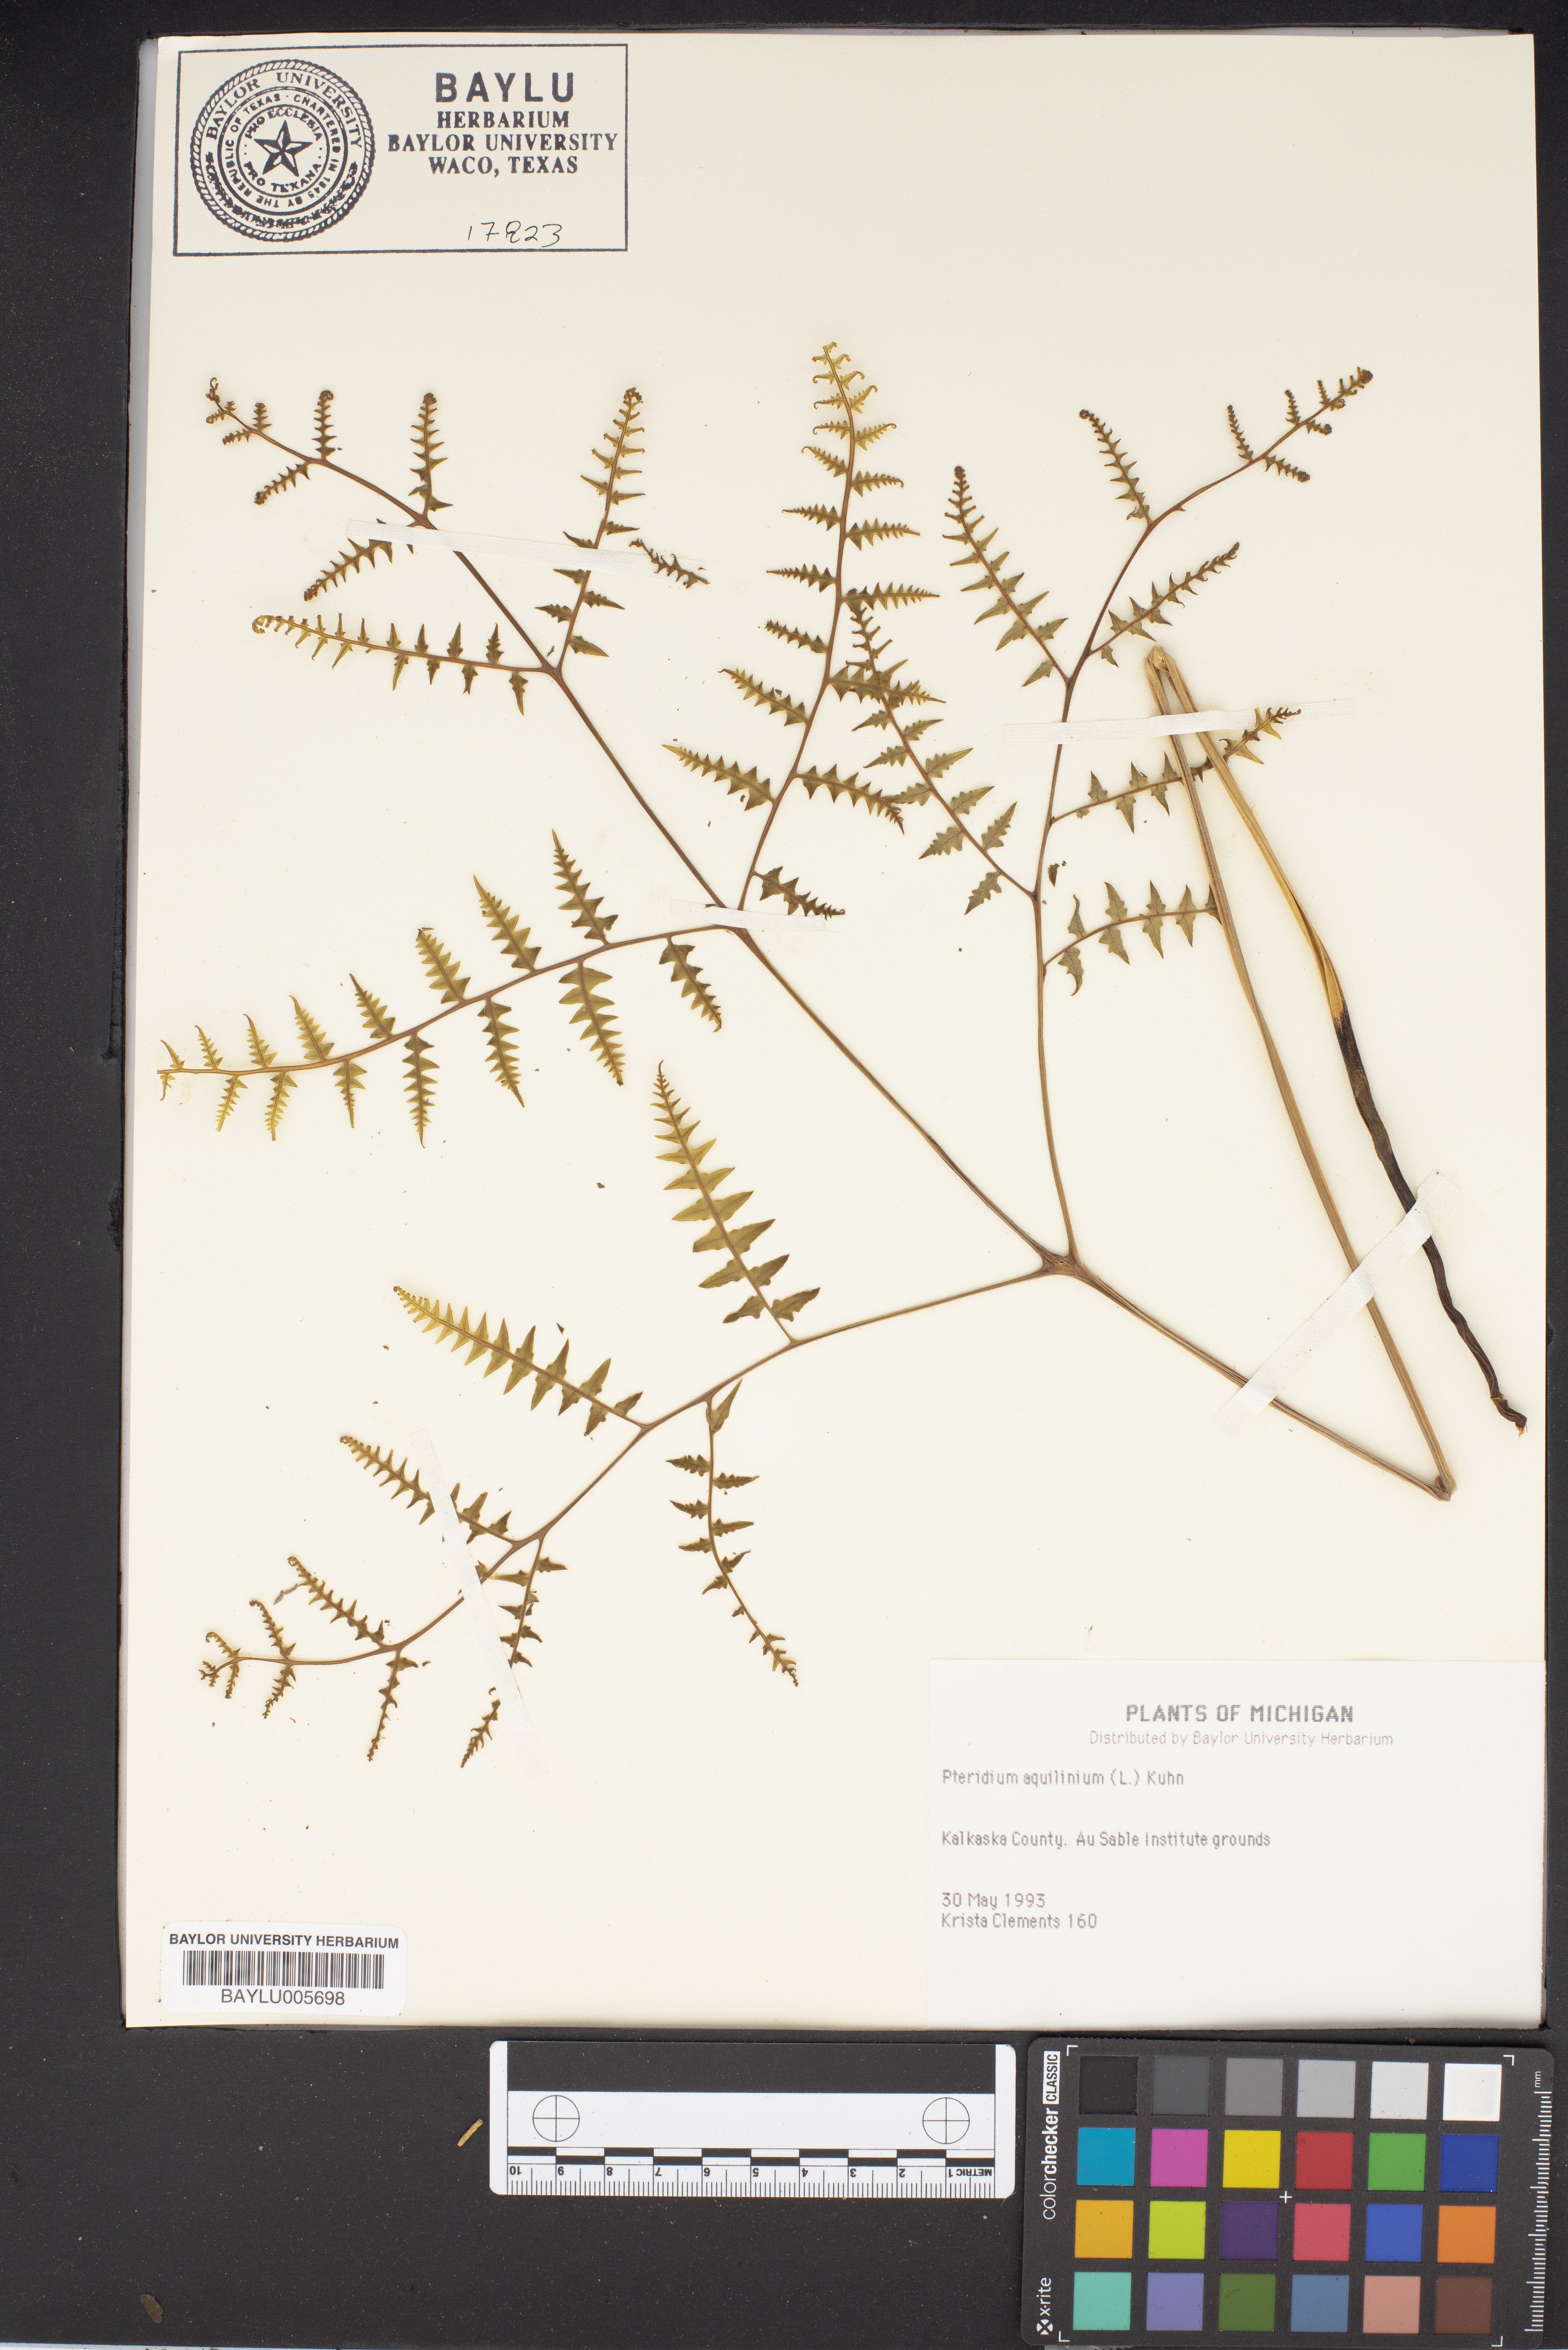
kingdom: Plantae
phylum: Tracheophyta
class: Polypodiopsida
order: Polypodiales
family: Dennstaedtiaceae
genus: Pteridium
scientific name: Pteridium aquilinum
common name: Bracken
